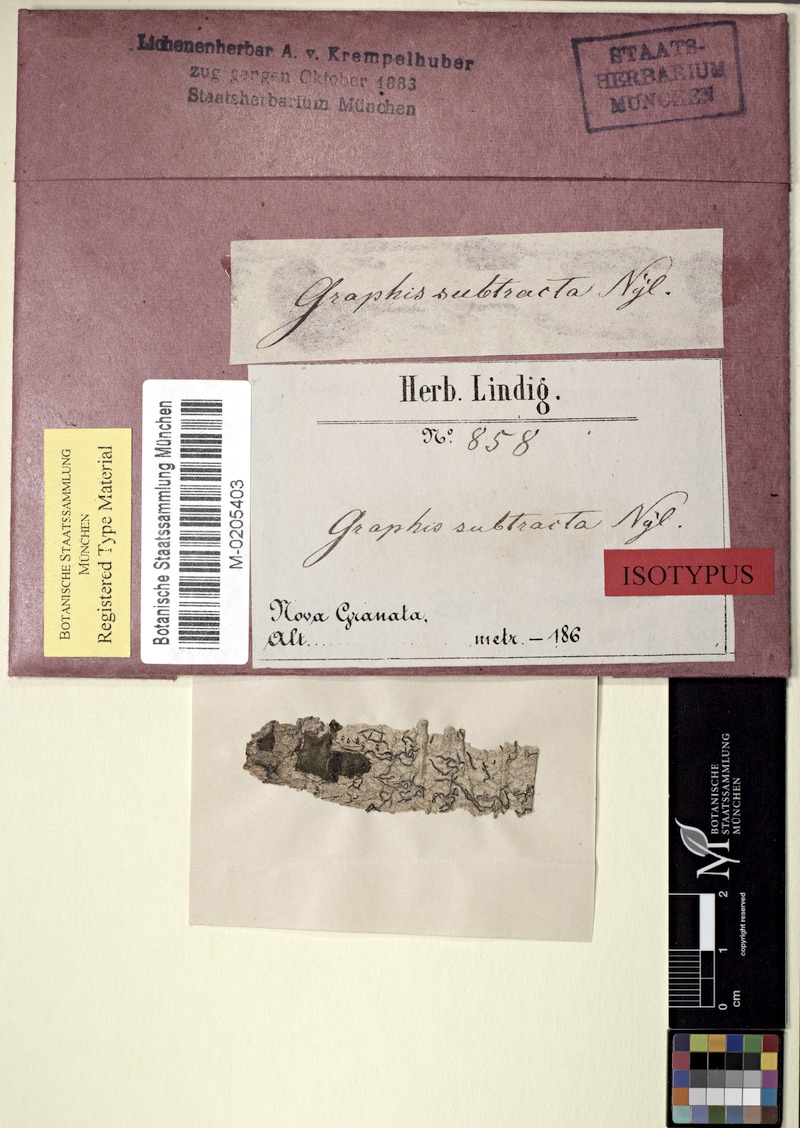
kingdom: Fungi
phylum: Ascomycota
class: Lecanoromycetes
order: Ostropales
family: Graphidaceae
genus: Graphis
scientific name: Graphis subtracta
